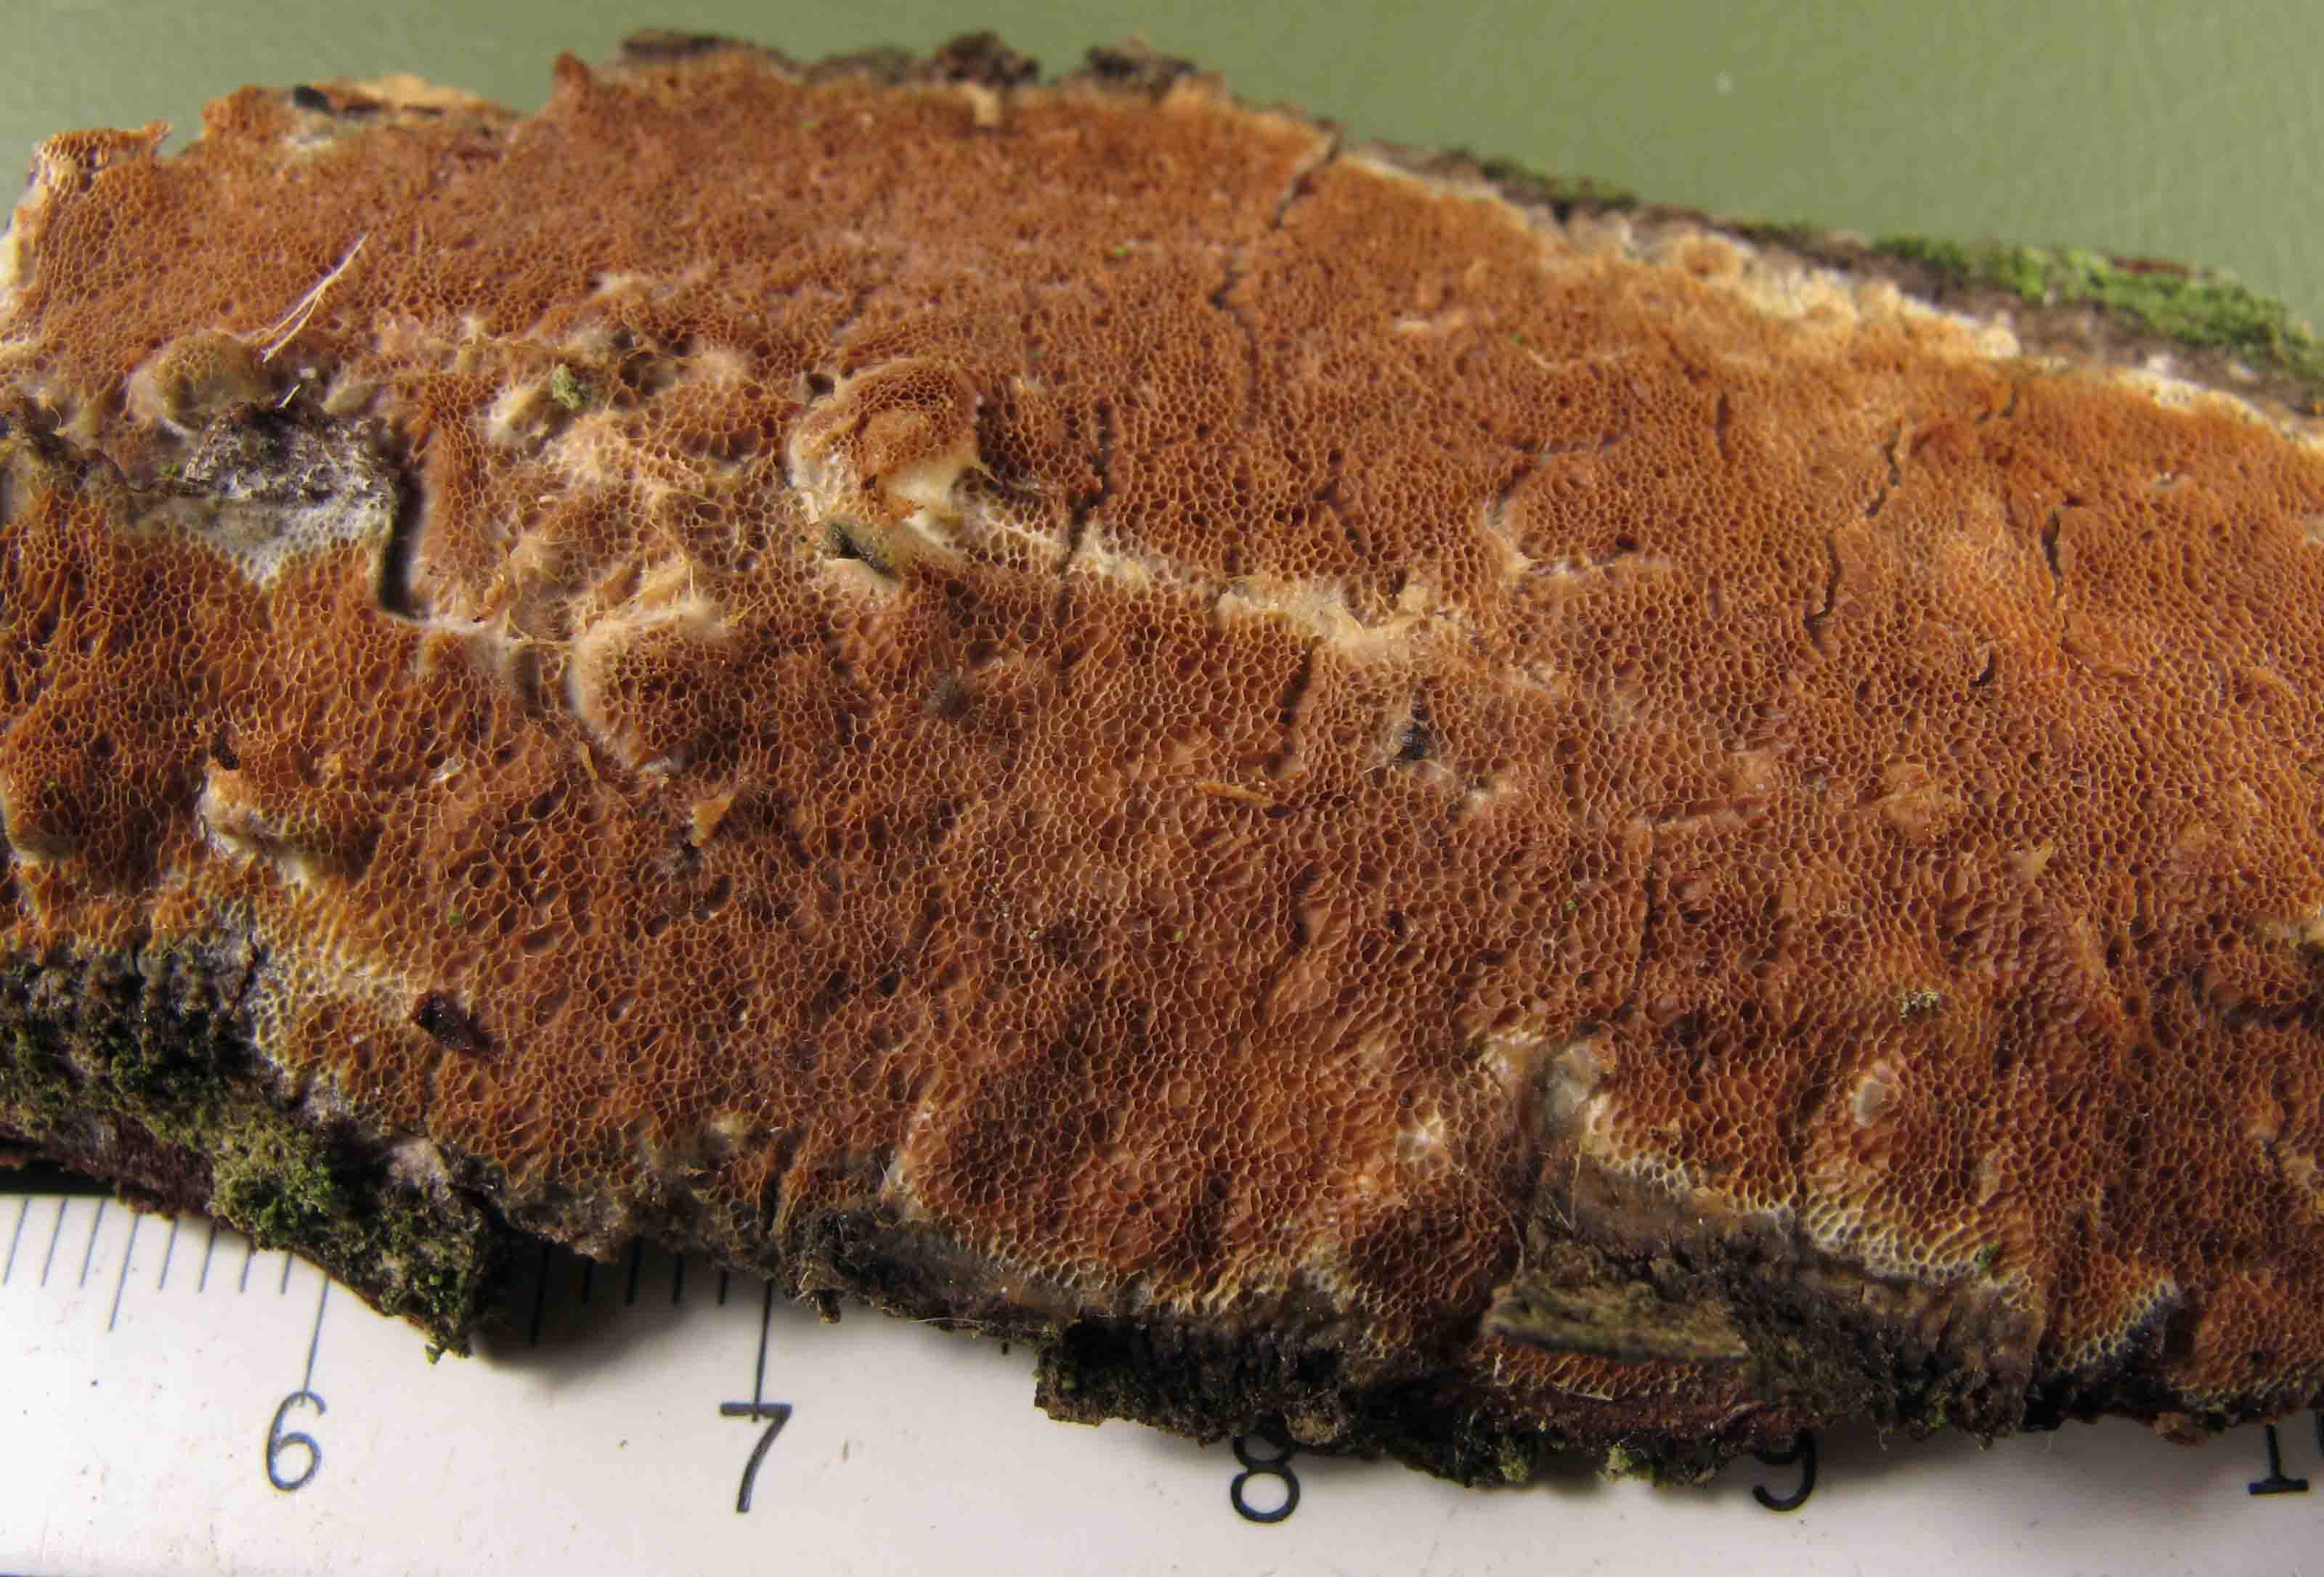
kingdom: Fungi
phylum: Basidiomycota
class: Agaricomycetes
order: Polyporales
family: Irpicaceae
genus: Resiniporus
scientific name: Resiniporus resinascens
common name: trist pastelporesvamp
